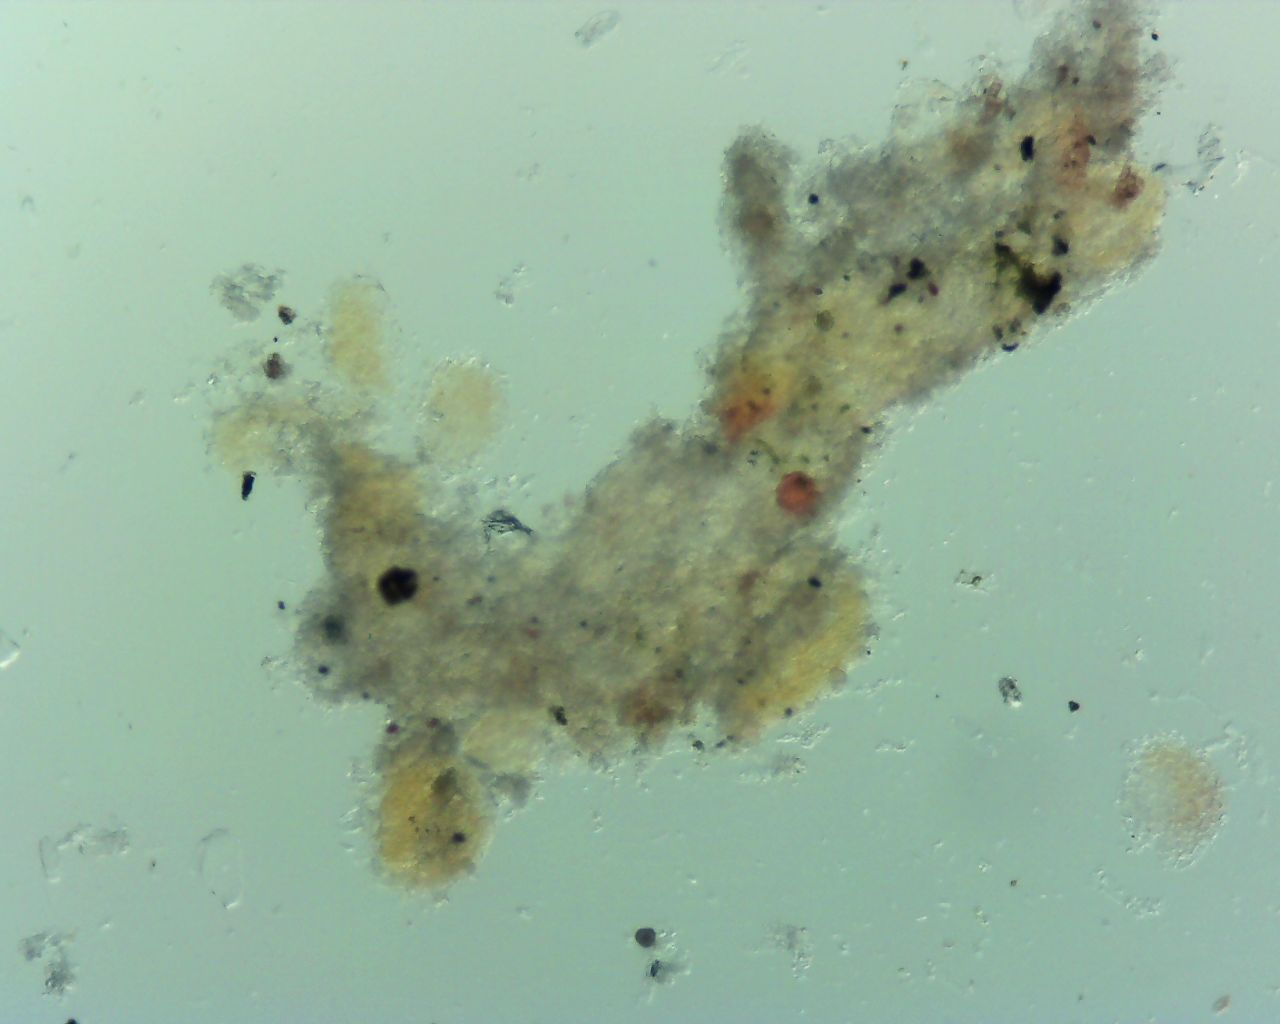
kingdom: Fungi
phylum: Ascomycota
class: Leotiomycetes
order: Helotiales
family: Erysiphaceae
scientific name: Erysiphaceae
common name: meldugfamilien
